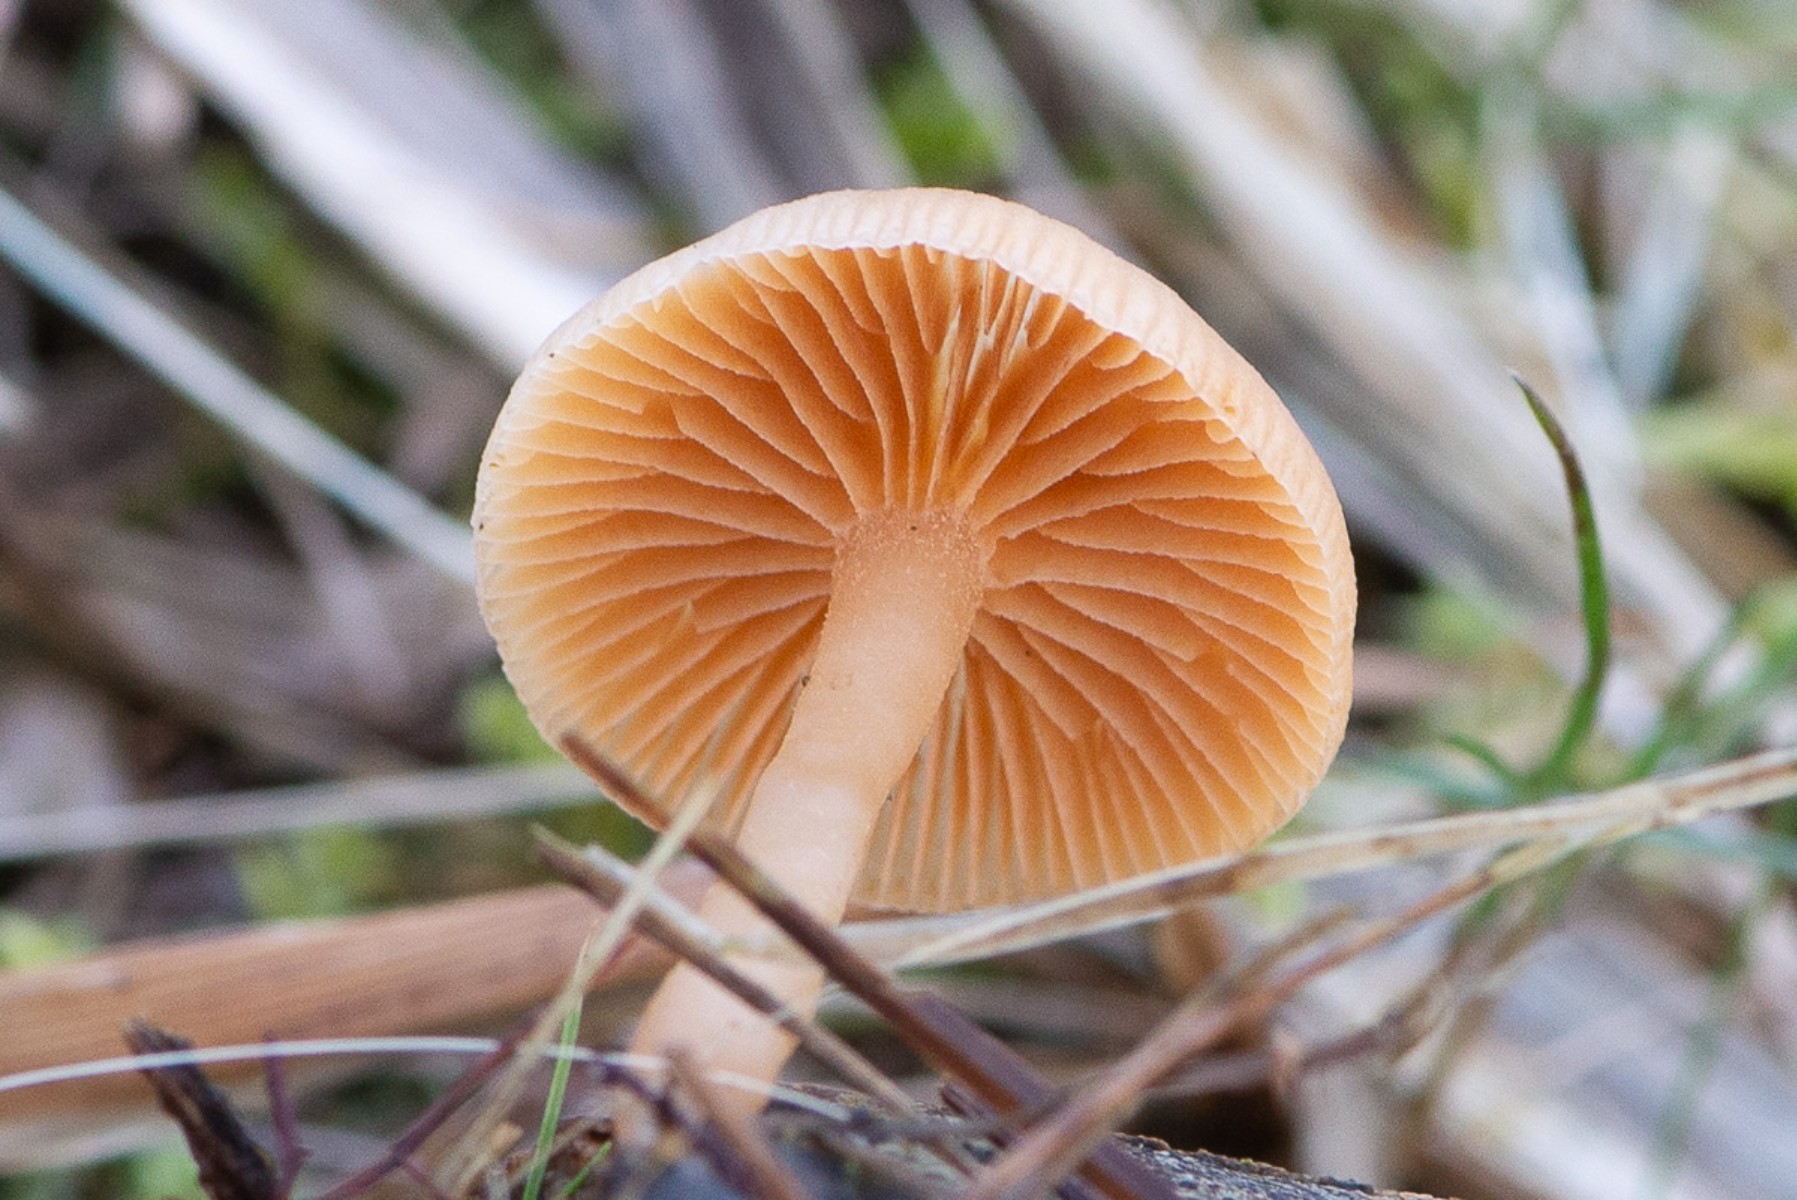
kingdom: Fungi
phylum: Basidiomycota
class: Agaricomycetes
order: Agaricales
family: Tubariaceae
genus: Tubaria
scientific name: Tubaria furfuracea
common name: kliddet fnughat
